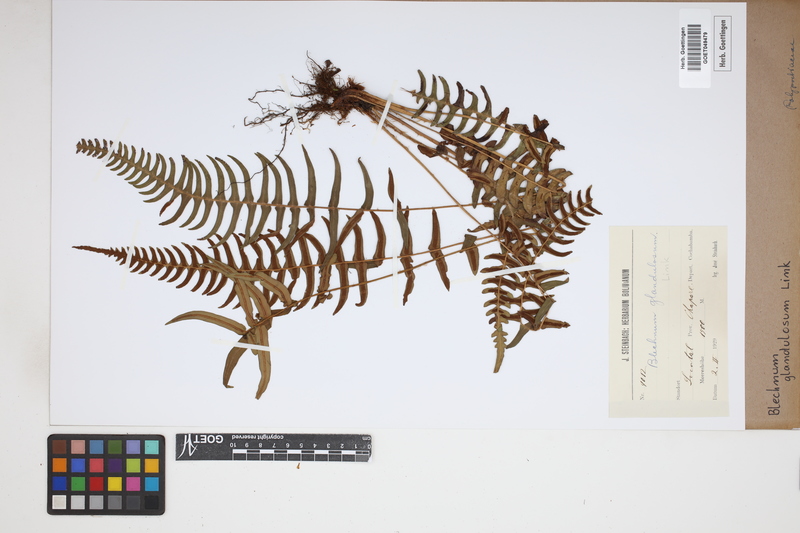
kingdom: Plantae
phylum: Tracheophyta
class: Polypodiopsida
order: Polypodiales
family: Blechnaceae
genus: Blechnum
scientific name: Blechnum appendiculatum
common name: Palm fern
